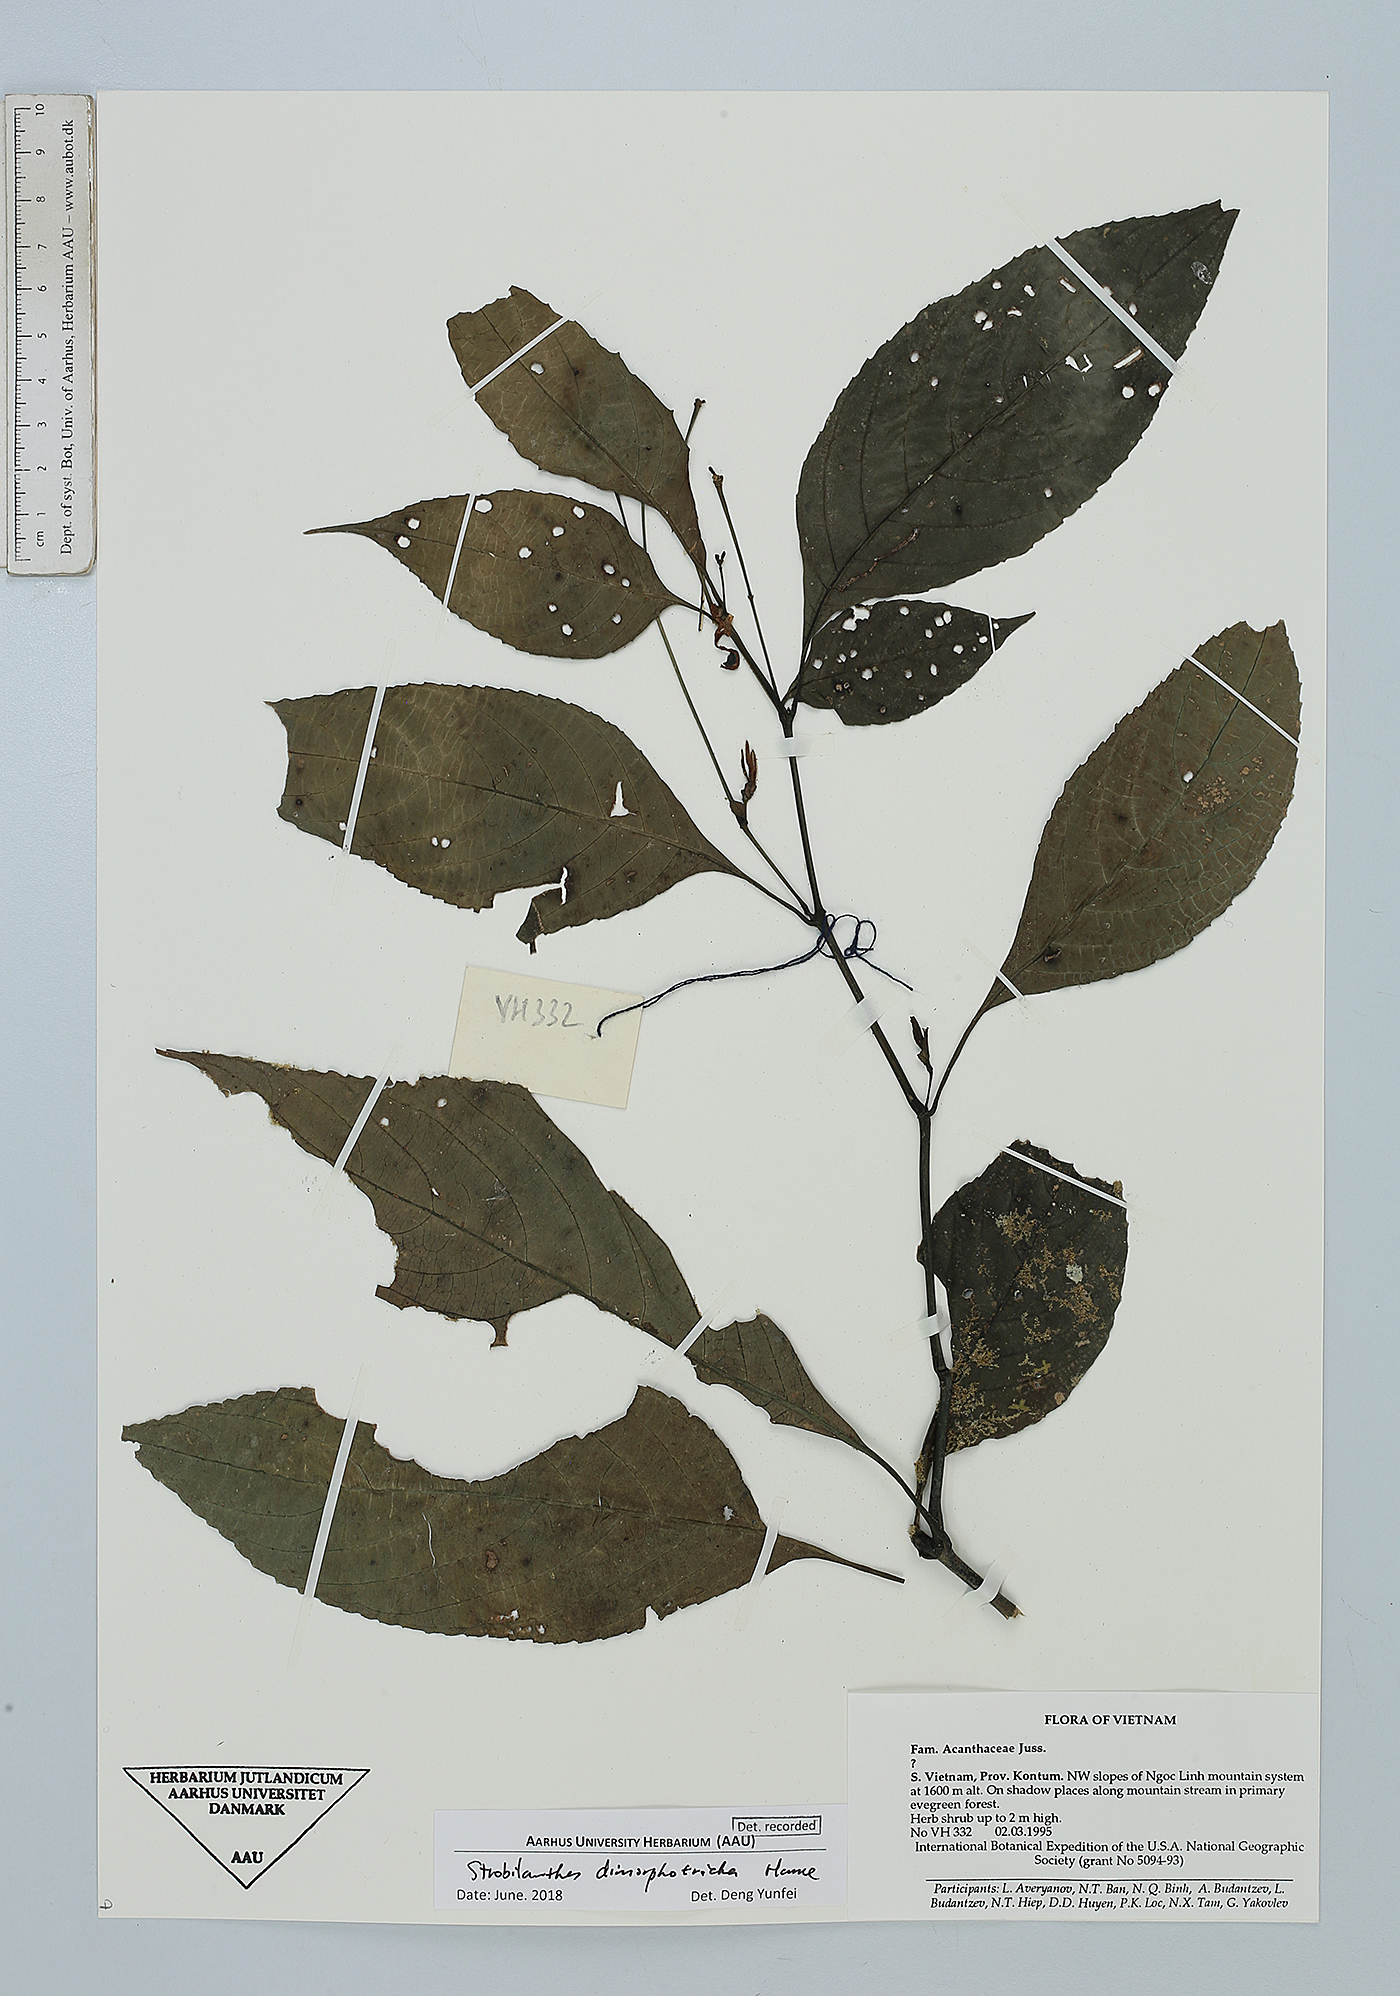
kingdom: Plantae
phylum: Tracheophyta
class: Magnoliopsida
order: Lamiales
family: Acanthaceae
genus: Strobilanthes
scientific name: Strobilanthes dimorphotricha
